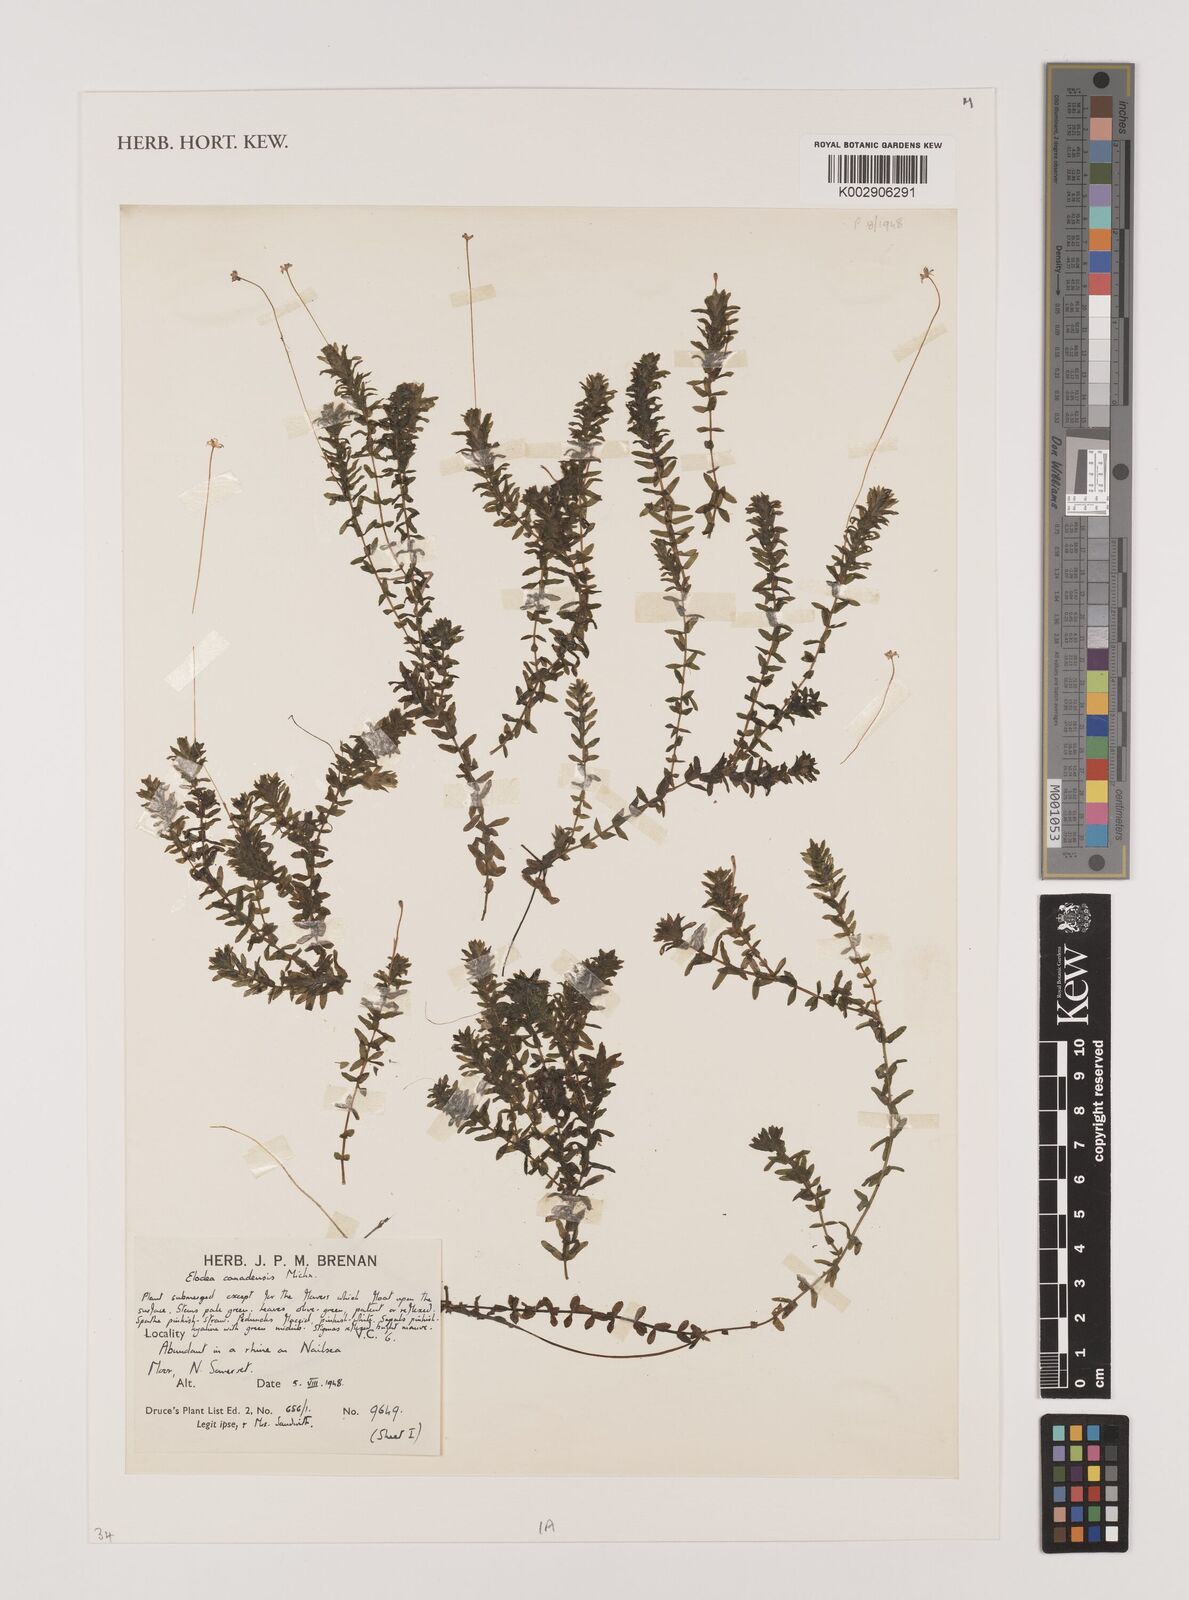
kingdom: Plantae
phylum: Tracheophyta
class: Liliopsida
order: Alismatales
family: Hydrocharitaceae
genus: Elodea
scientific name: Elodea canadensis
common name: Canadian waterweed
